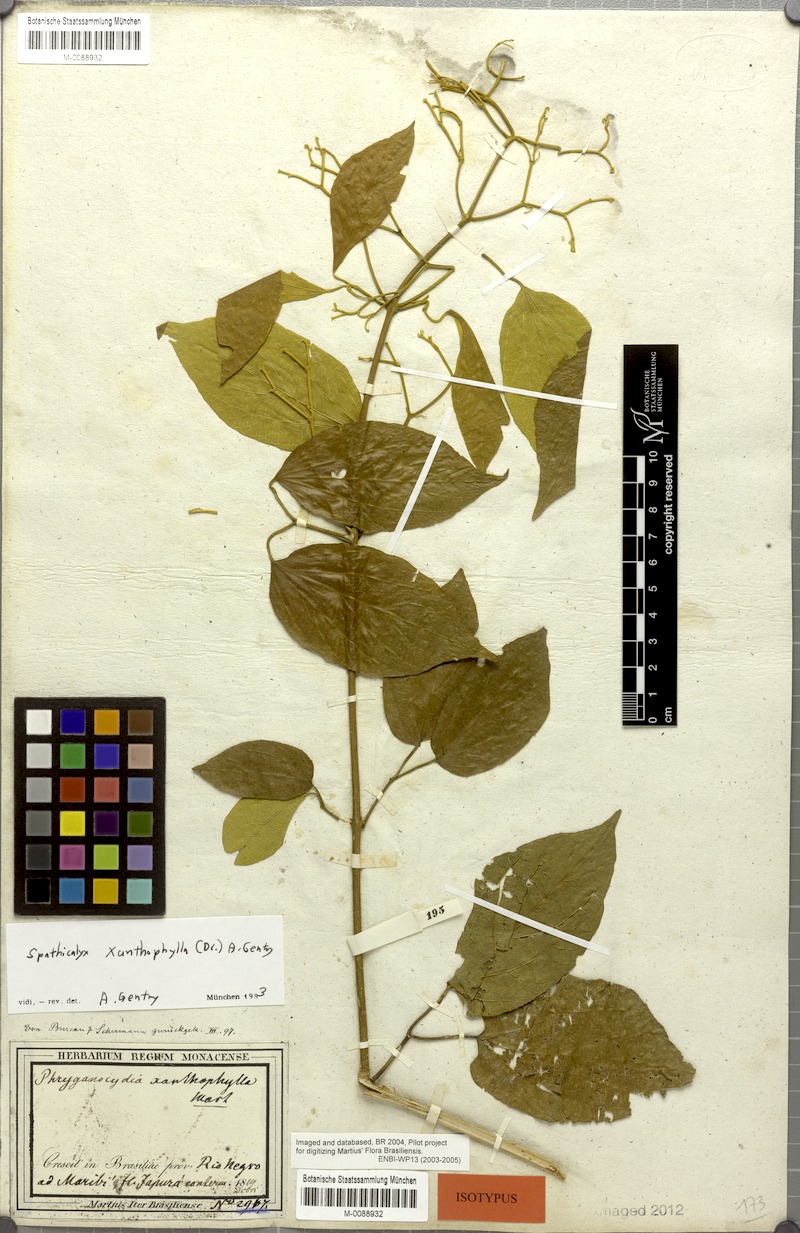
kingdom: Plantae
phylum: Tracheophyta
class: Magnoliopsida
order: Lamiales
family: Bignoniaceae
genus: Tanaecium
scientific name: Tanaecium xanthophyllum
